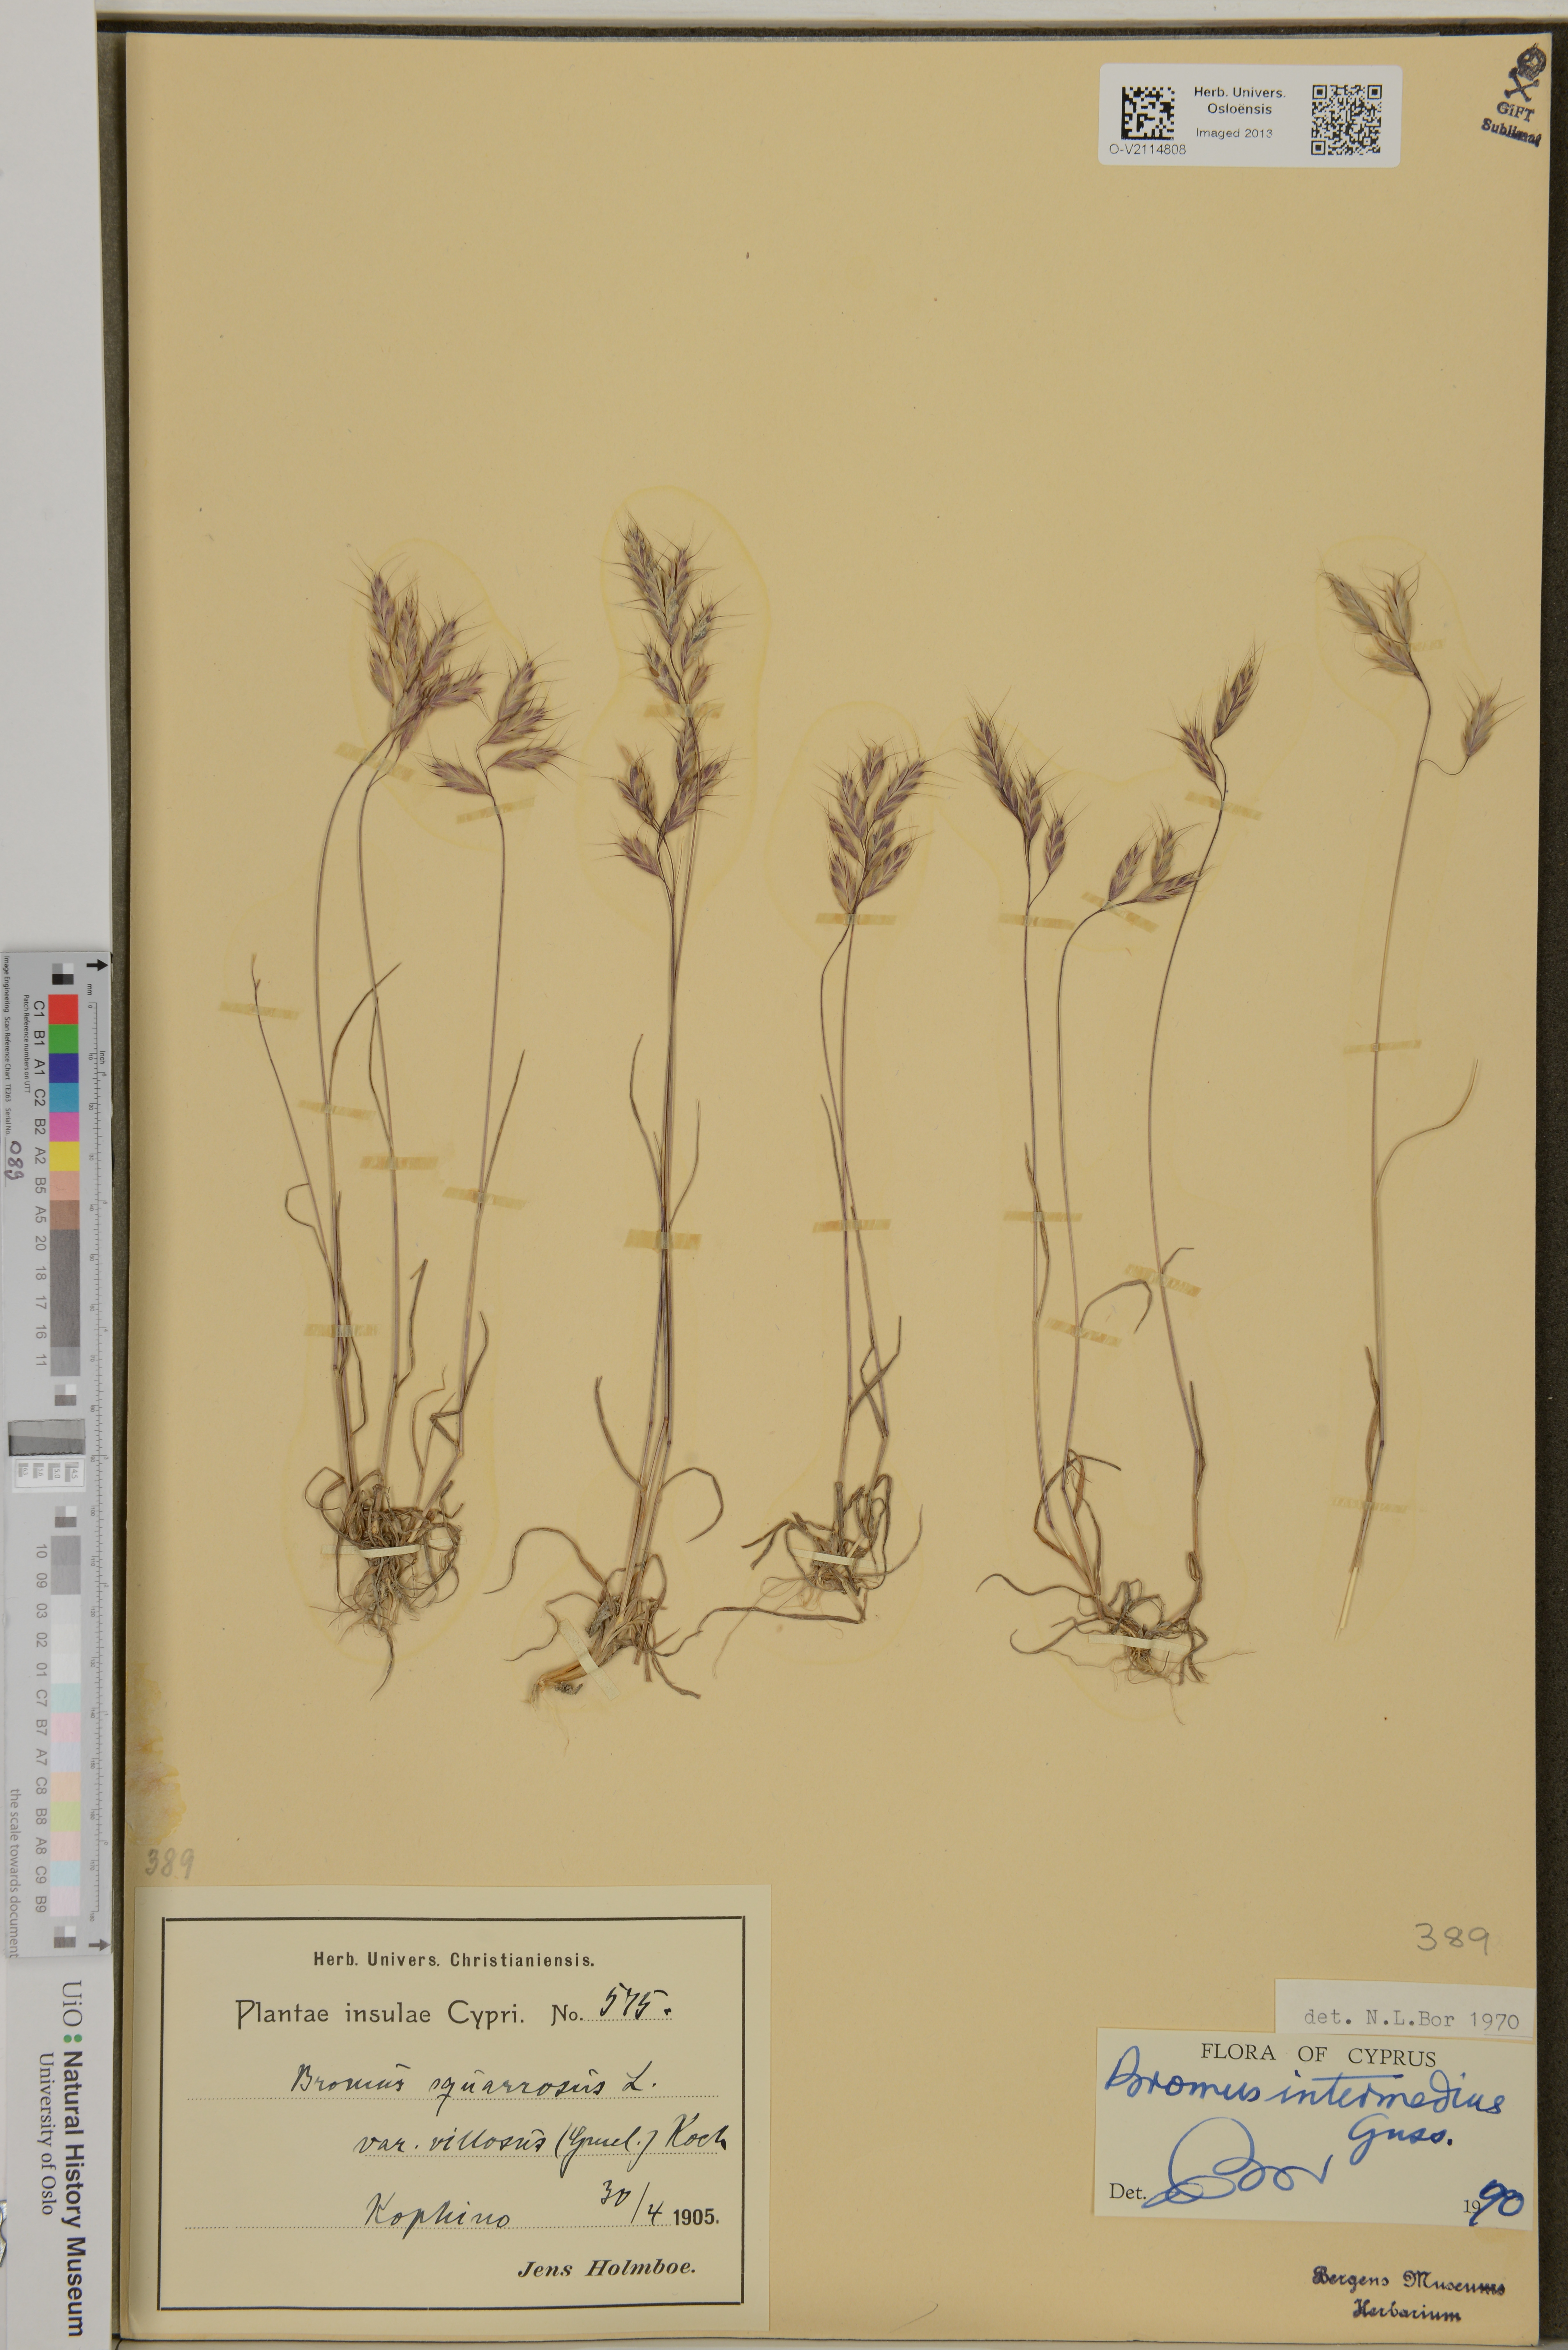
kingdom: Plantae
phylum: Tracheophyta
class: Liliopsida
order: Poales
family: Poaceae
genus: Bromus
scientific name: Bromus squarrosus
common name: Corn brome
